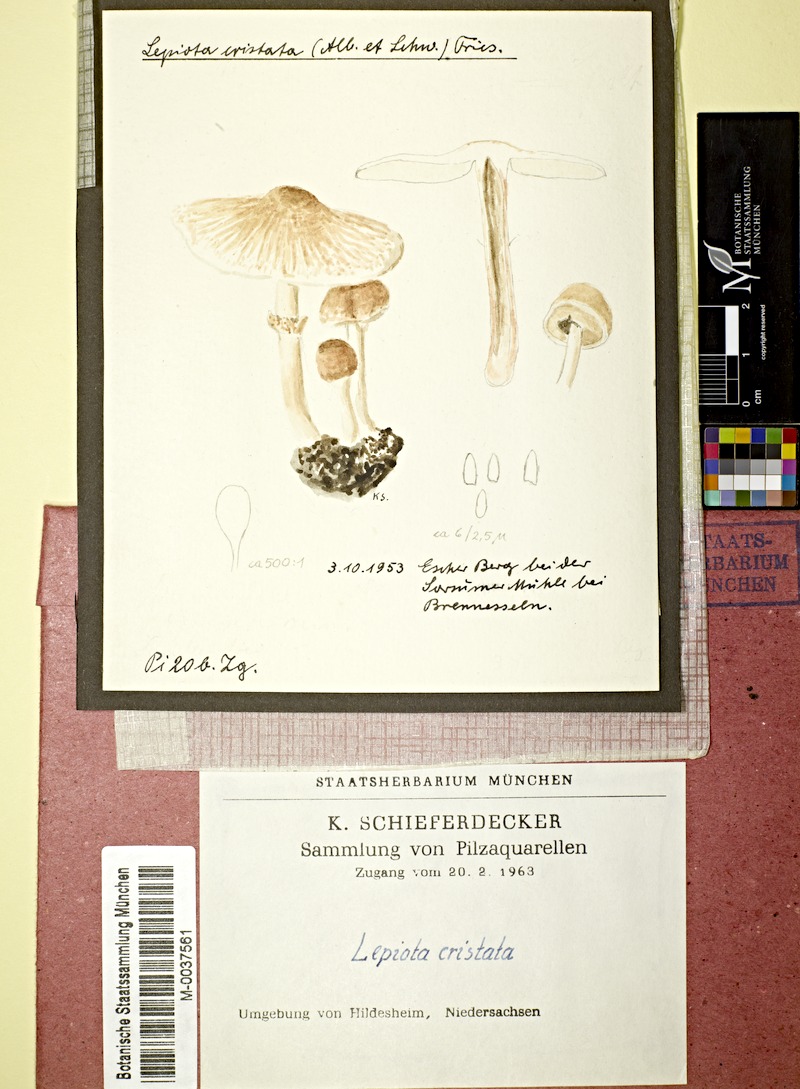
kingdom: Fungi
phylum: Basidiomycota
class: Agaricomycetes
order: Agaricales
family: Agaricaceae
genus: Lepiota
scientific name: Lepiota cristata
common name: Stinking dapperling
